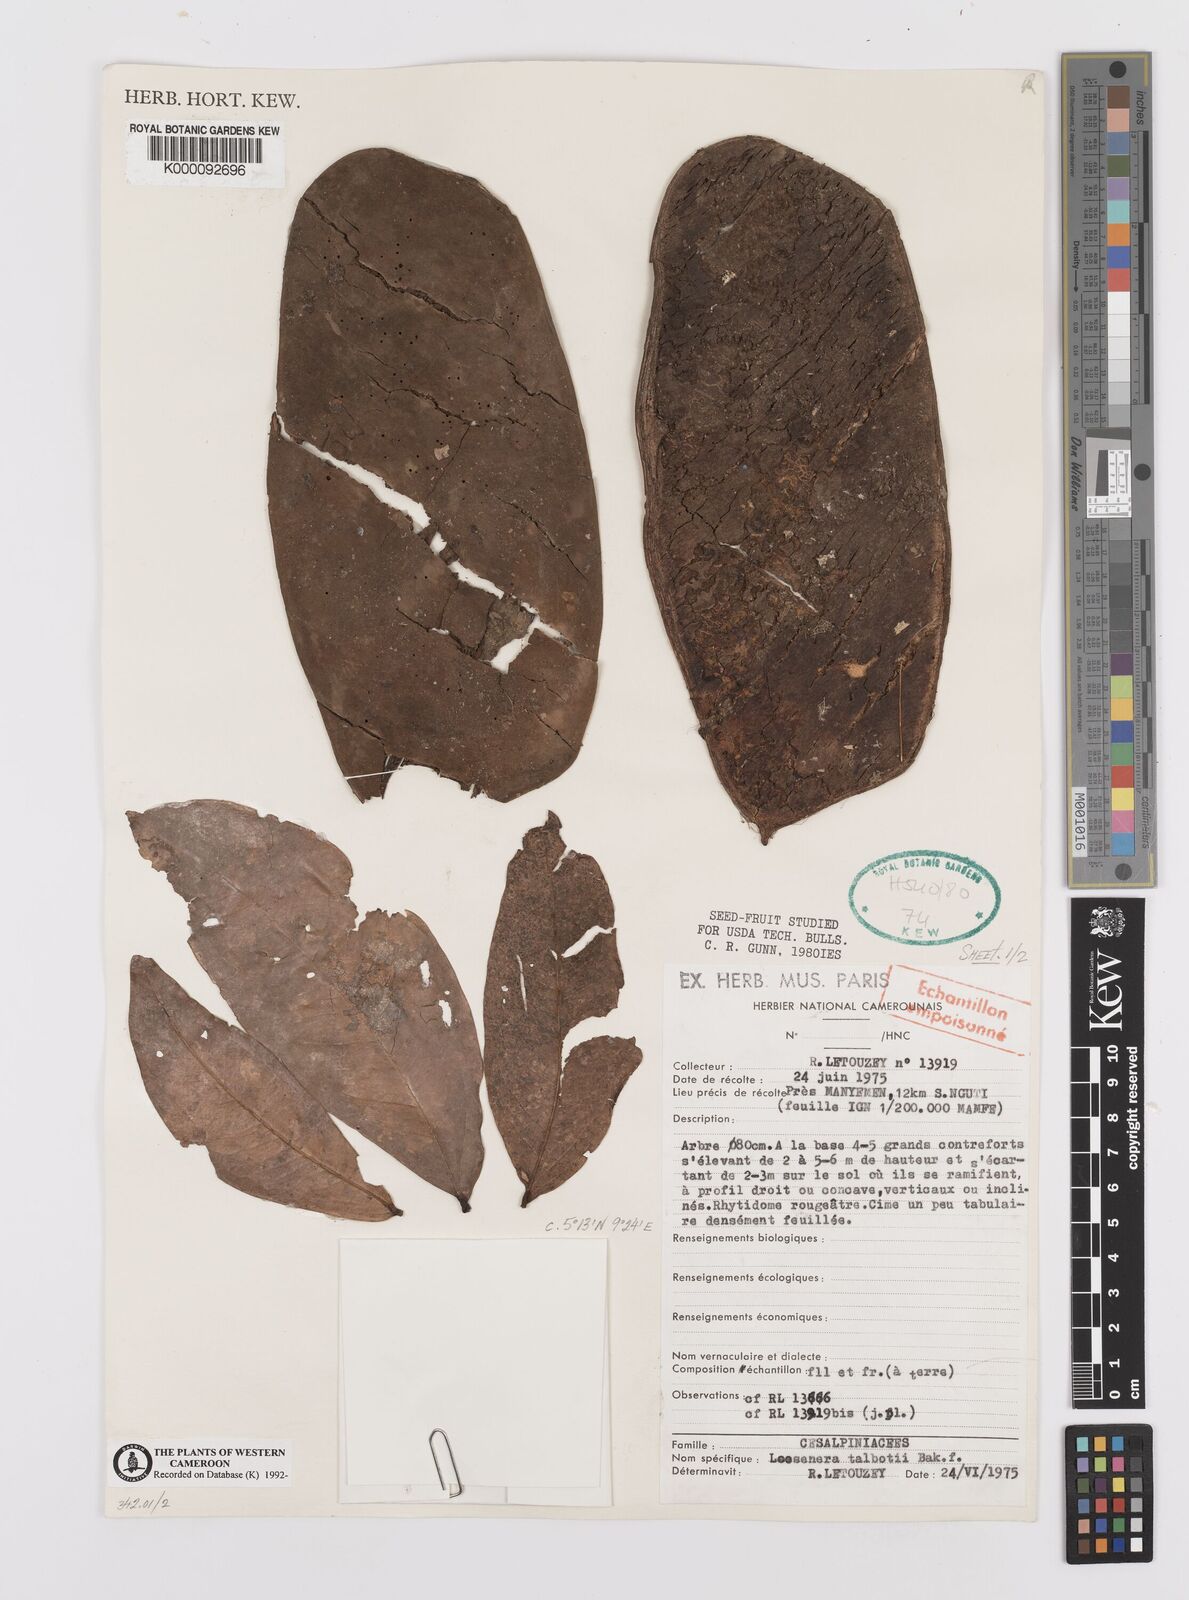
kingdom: Plantae
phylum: Tracheophyta
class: Magnoliopsida
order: Fabales
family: Fabaceae
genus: Loesenera
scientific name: Loesenera talbotii
